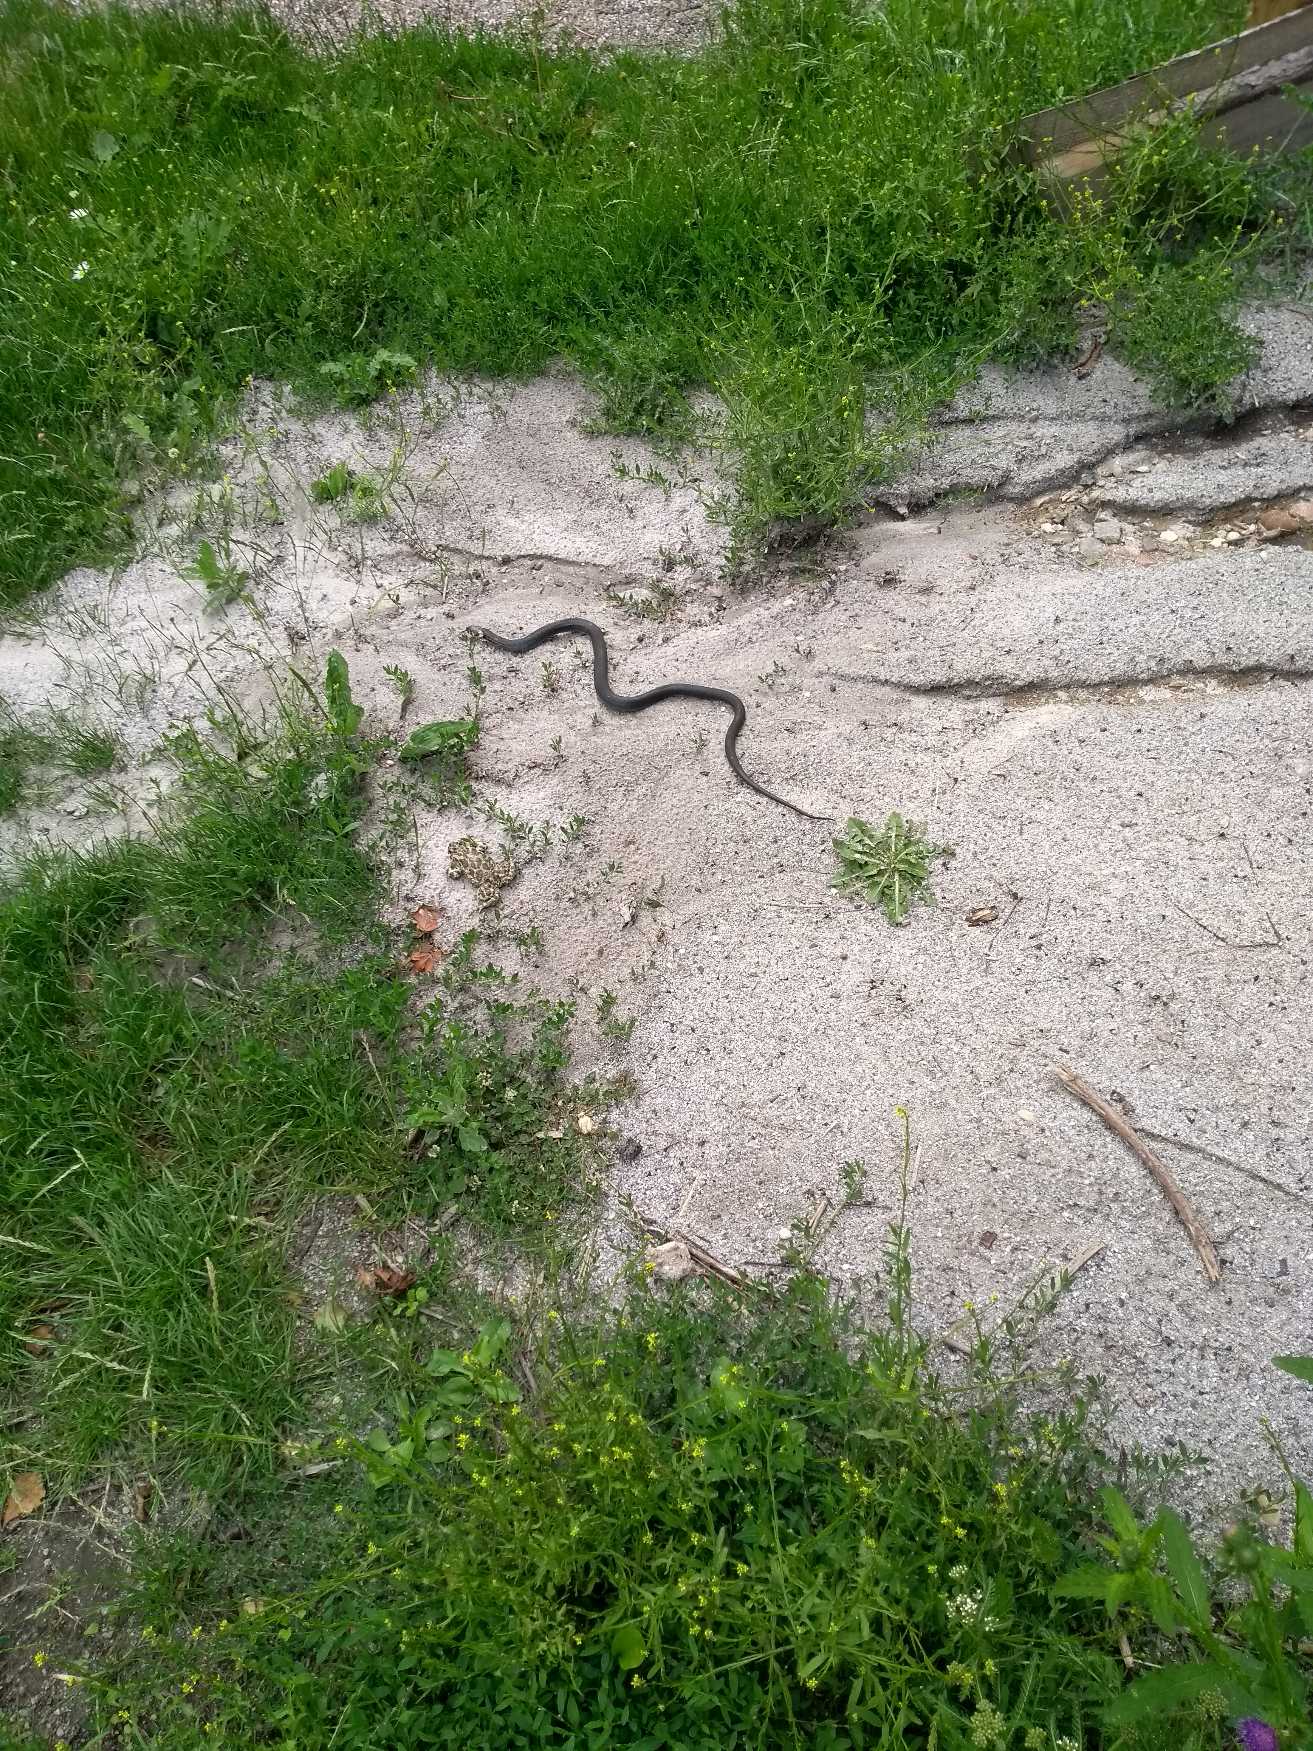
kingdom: Animalia
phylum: Chordata
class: Squamata
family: Colubridae
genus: Natrix
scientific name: Natrix natrix
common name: Snog
